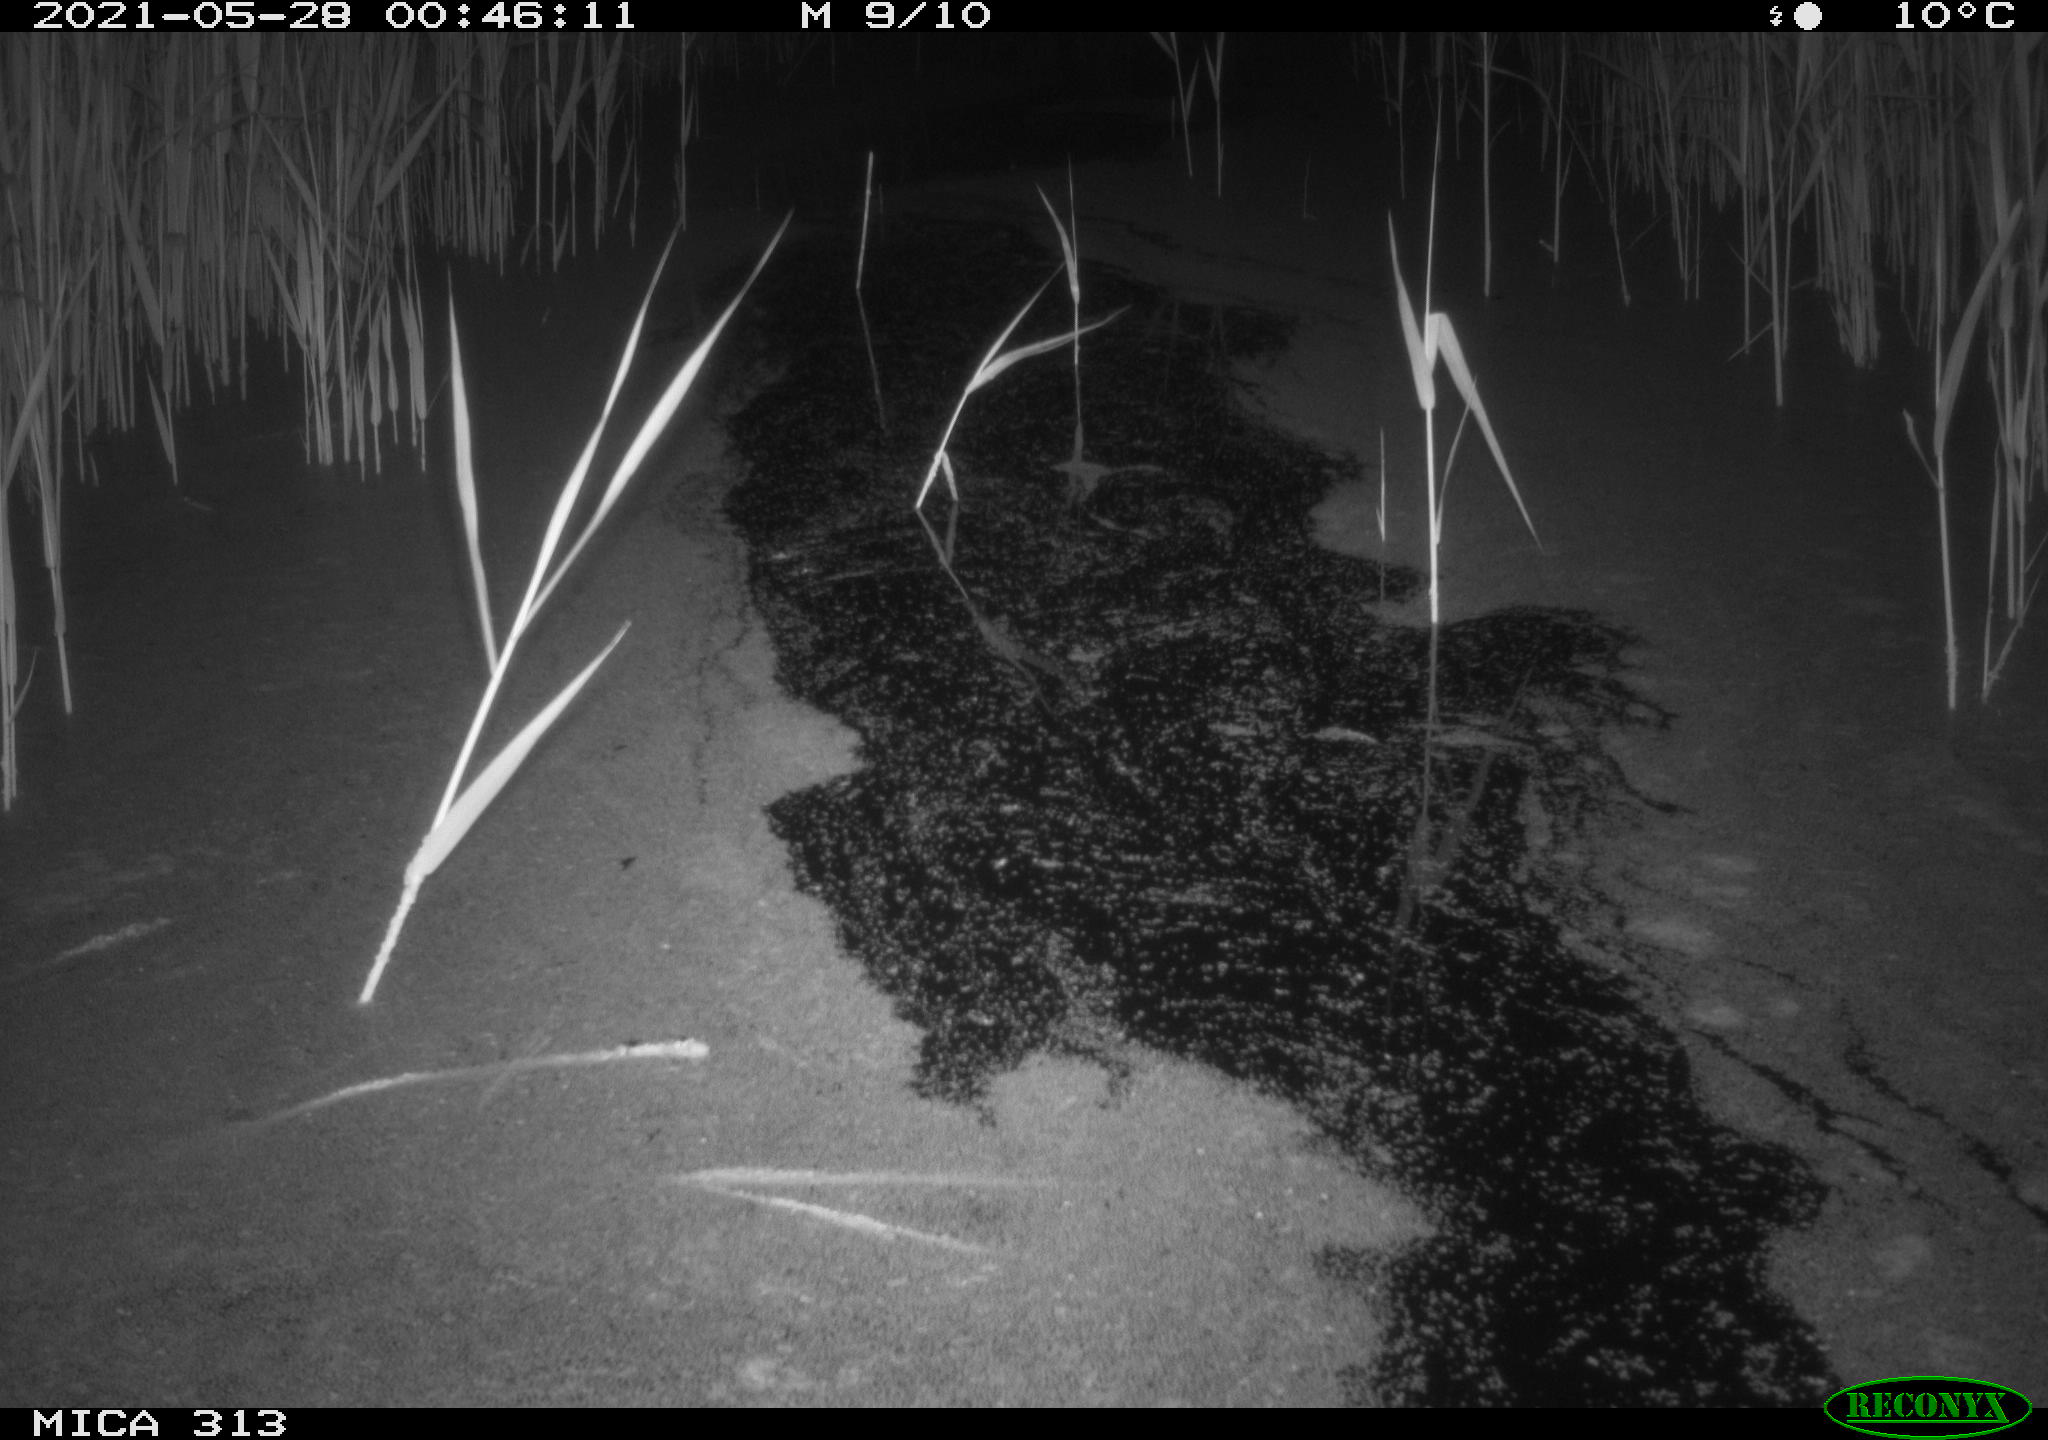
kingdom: Animalia
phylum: Chordata
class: Aves
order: Anseriformes
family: Anatidae
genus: Anas
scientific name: Anas platyrhynchos
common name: Mallard
